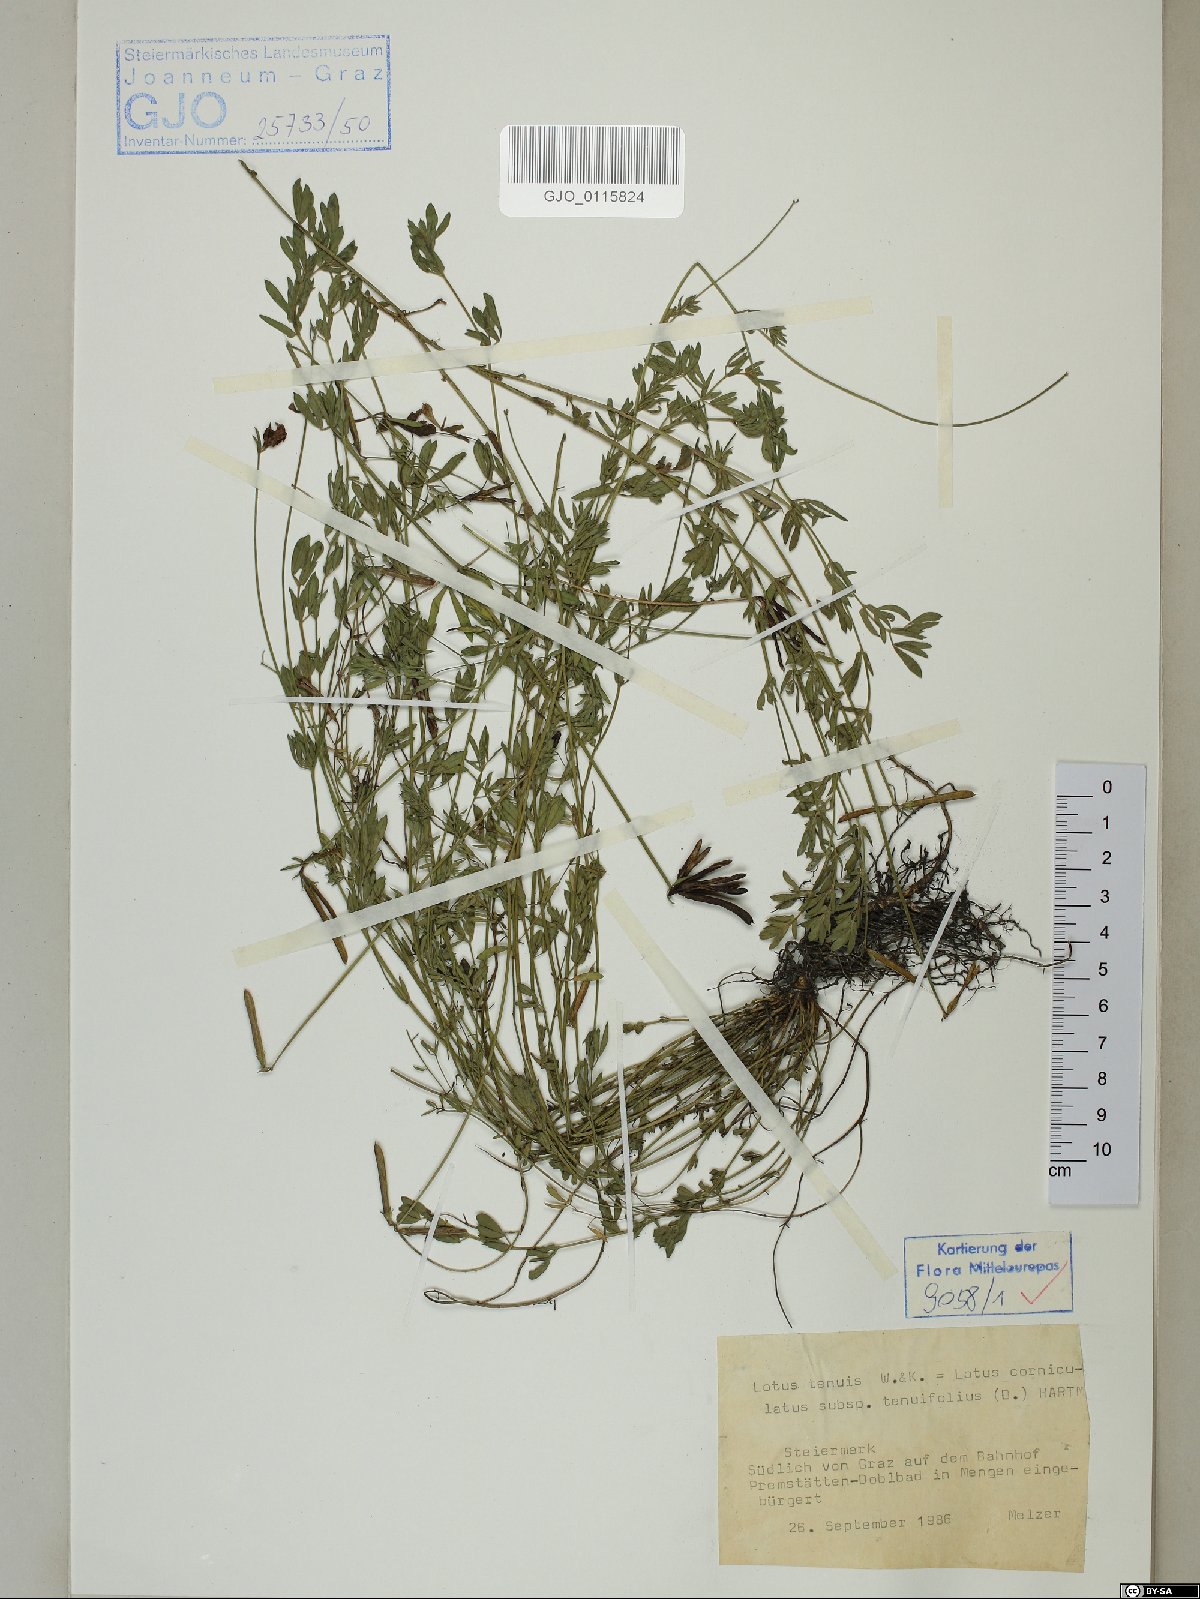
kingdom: Plantae
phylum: Tracheophyta
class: Magnoliopsida
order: Fabales
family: Fabaceae
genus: Lotus
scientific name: Lotus tenuis
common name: Narrow-leaved bird's-foot-trefoil
